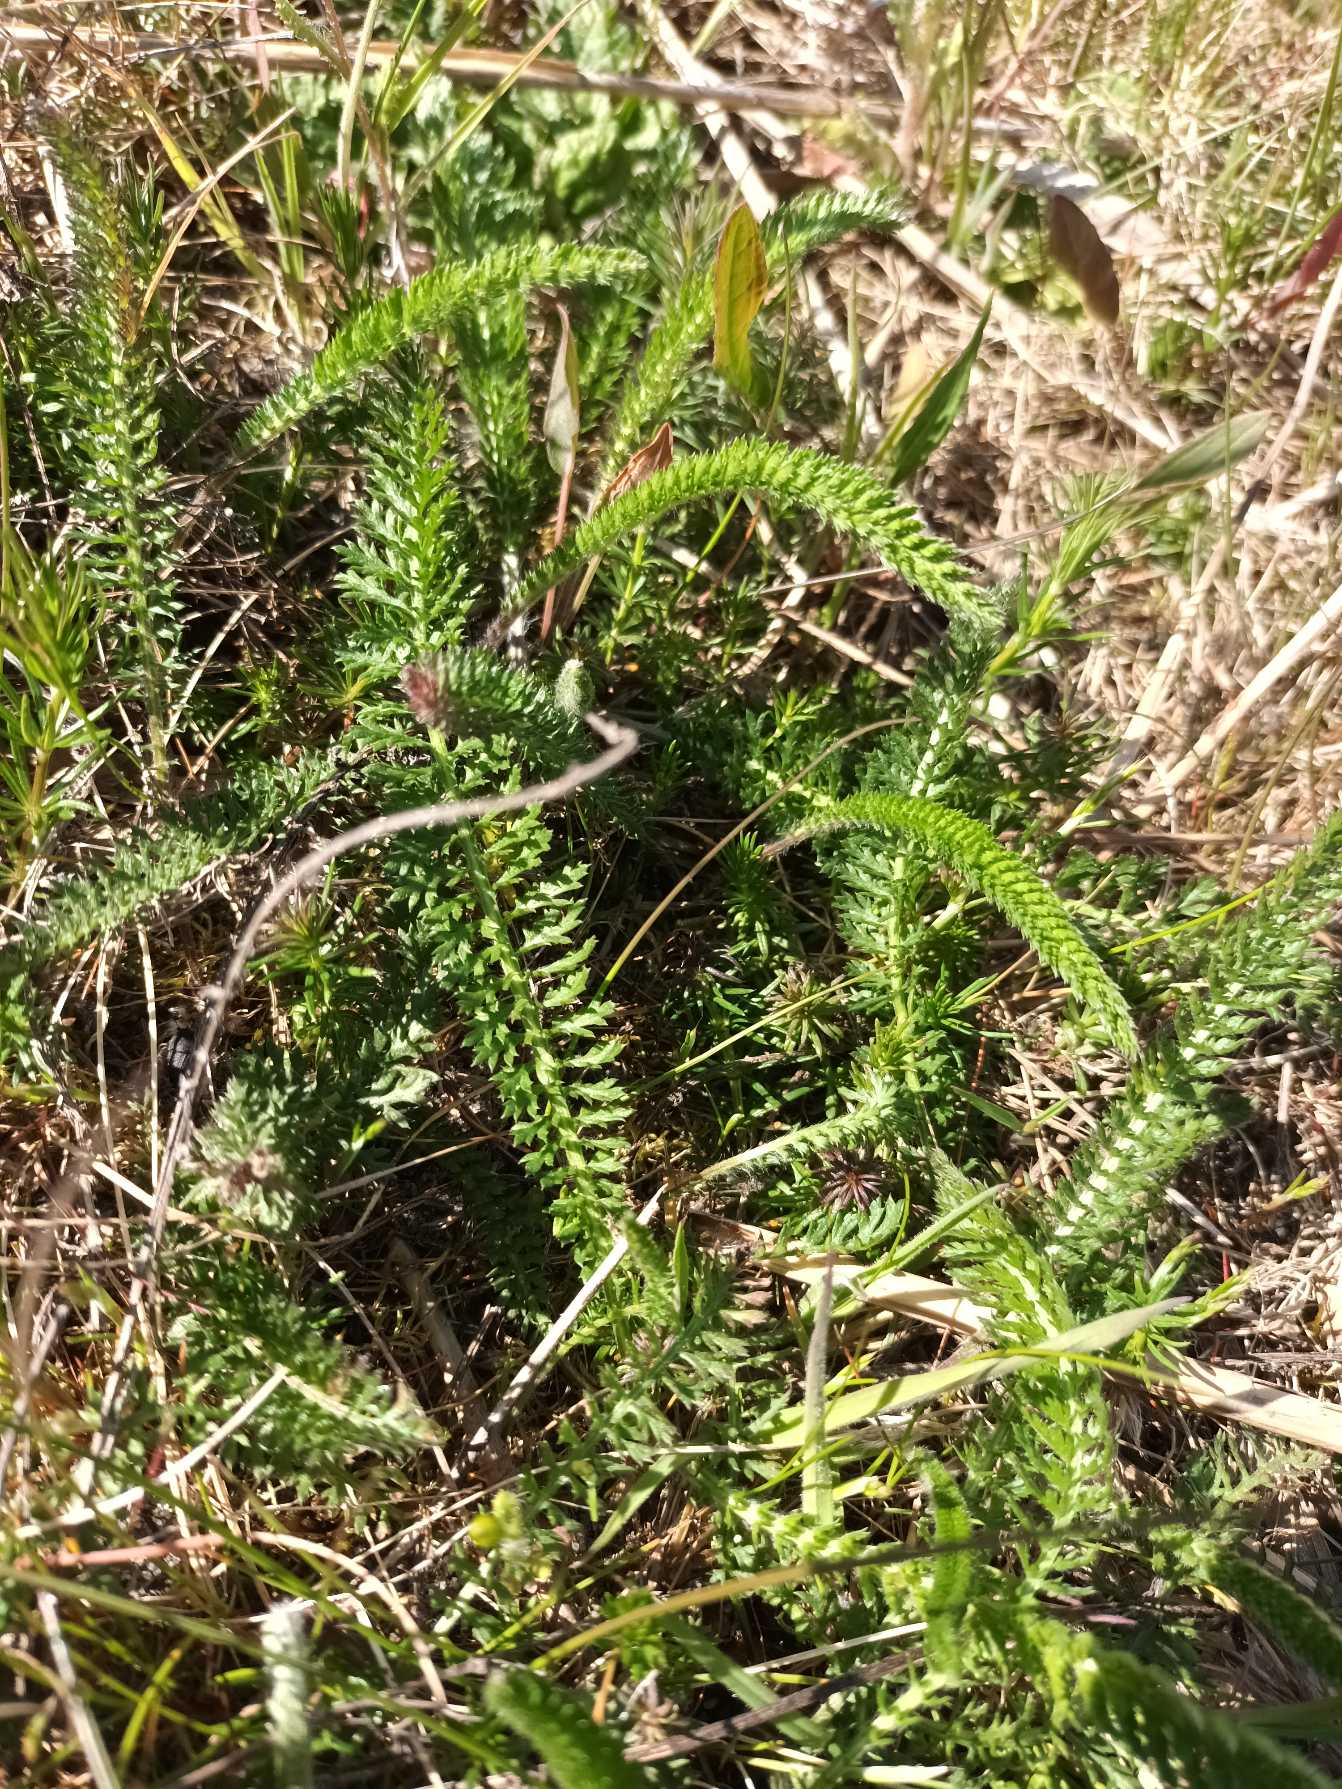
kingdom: Plantae
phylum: Tracheophyta
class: Magnoliopsida
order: Asterales
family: Asteraceae
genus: Achillea
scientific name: Achillea millefolium
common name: Almindelig røllike
